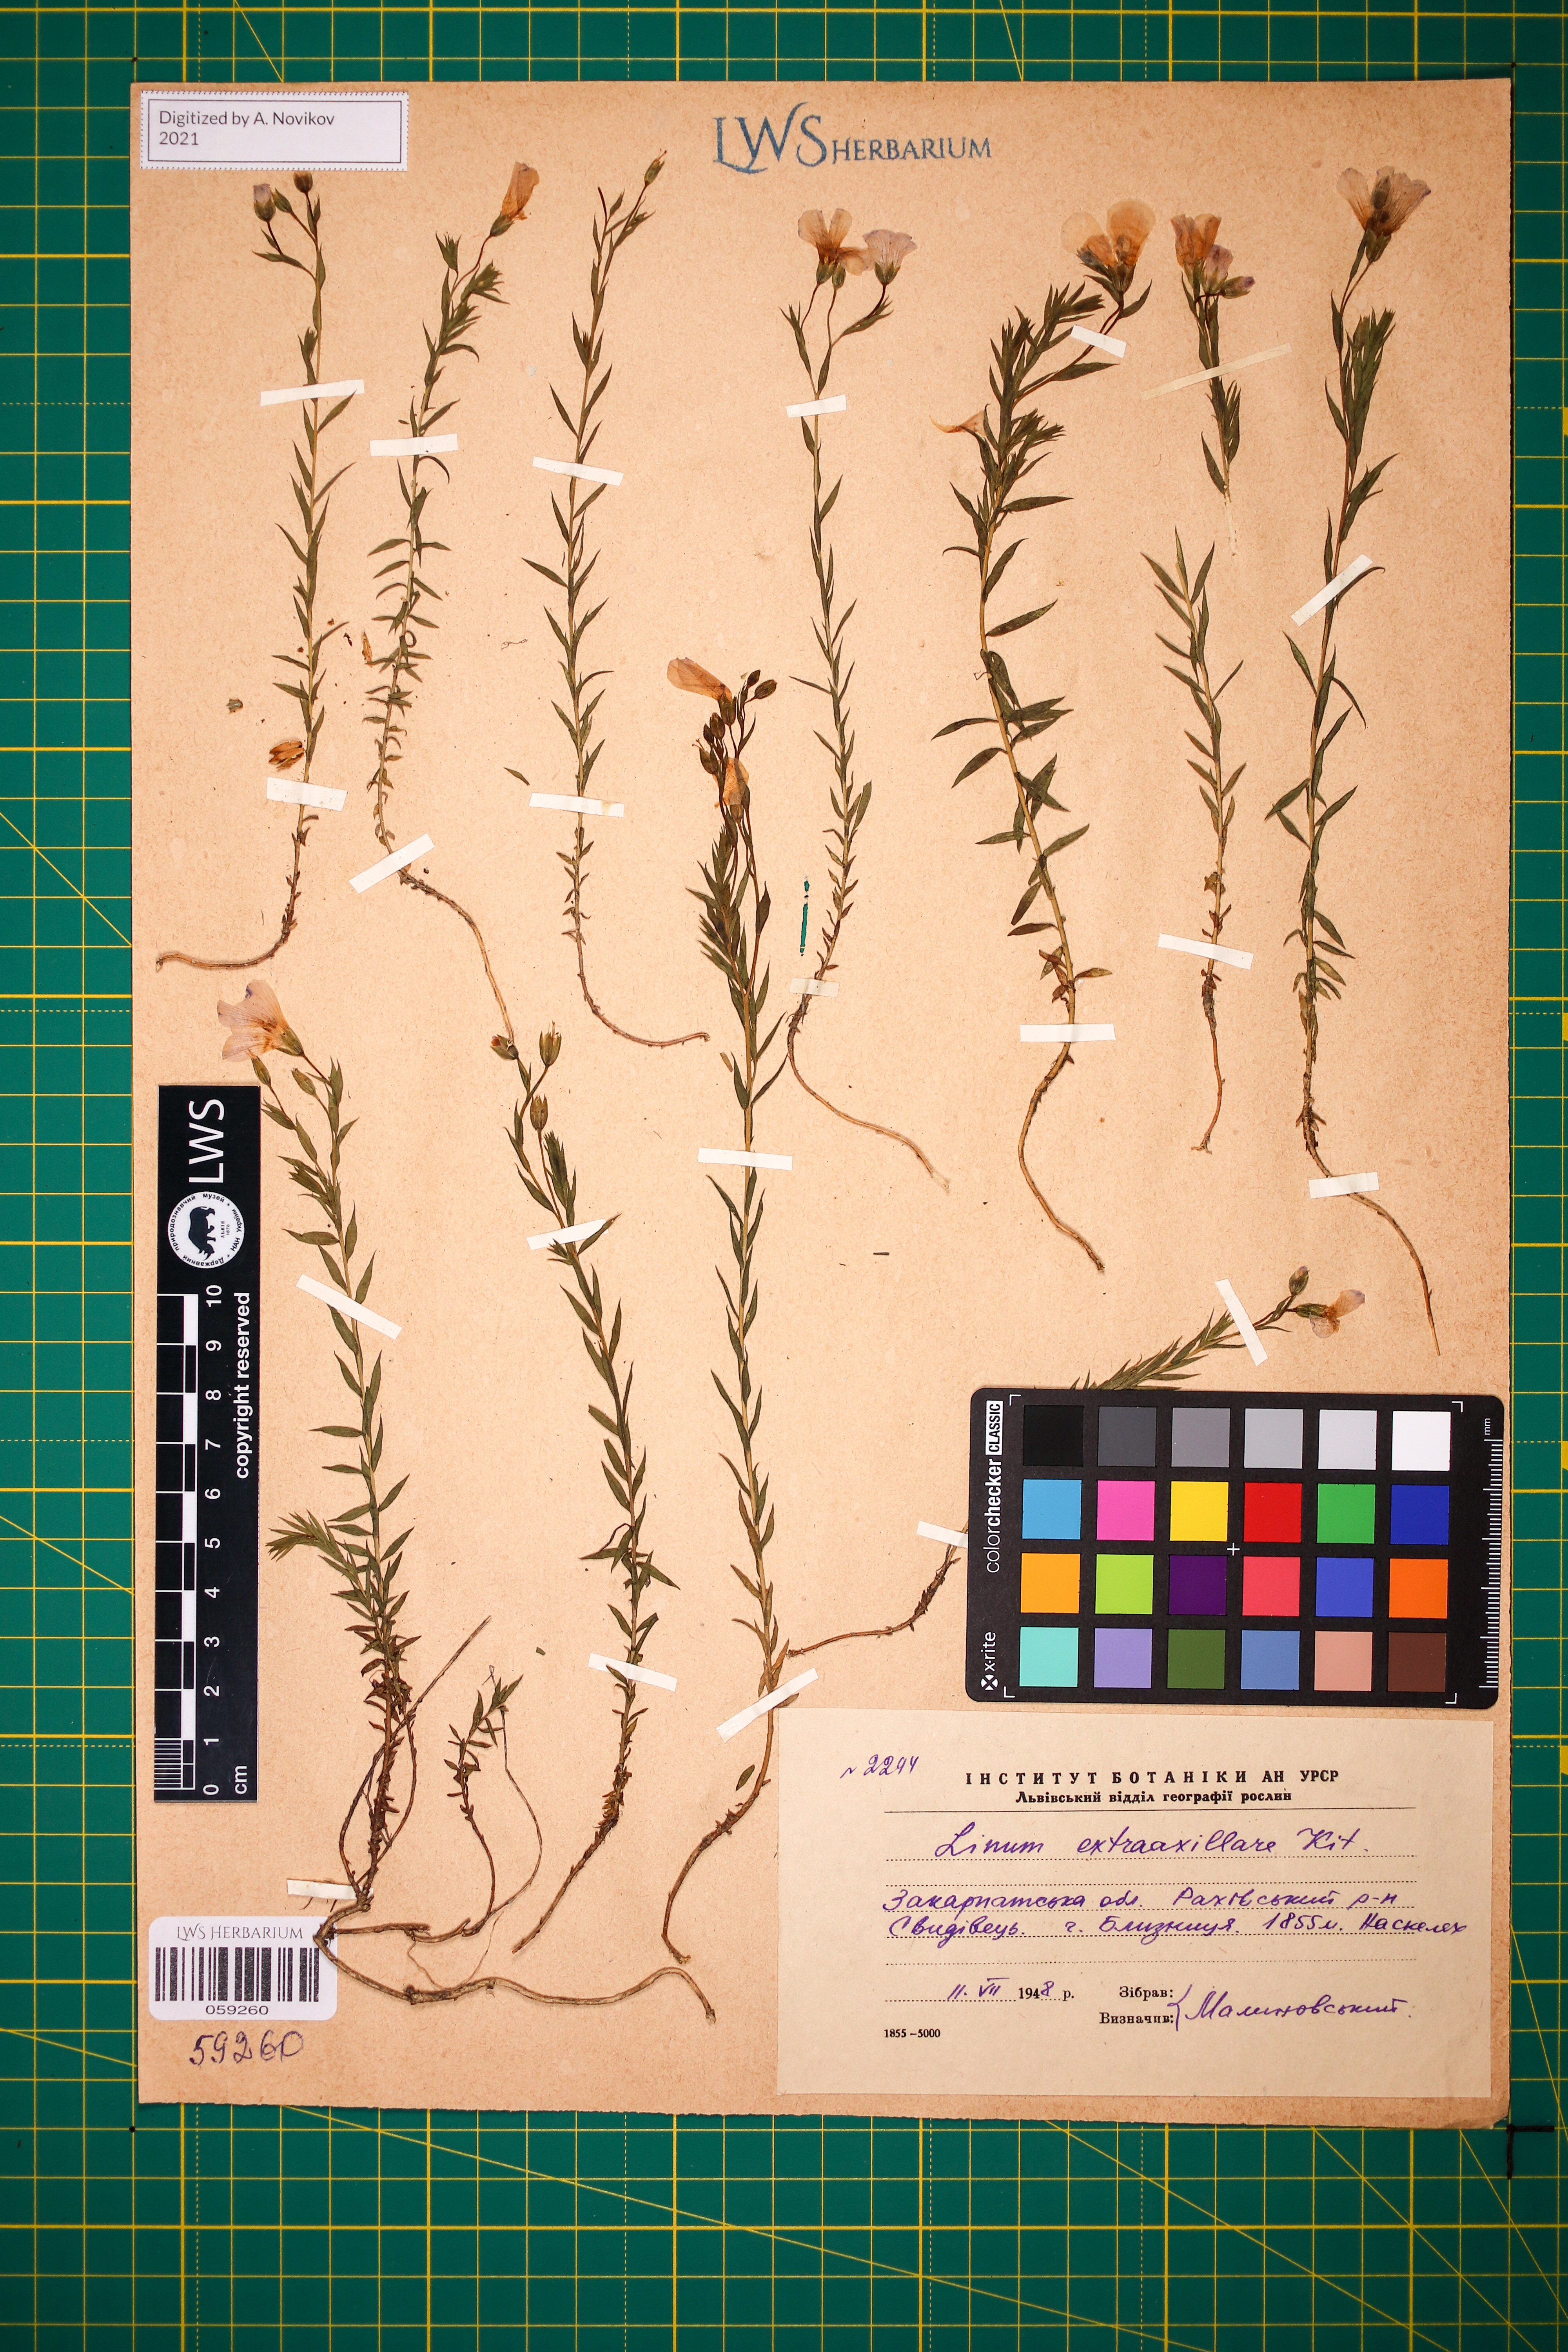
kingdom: Plantae
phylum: Tracheophyta
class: Magnoliopsida
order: Malpighiales
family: Linaceae
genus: Linum
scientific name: Linum perenne
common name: Blue flax
